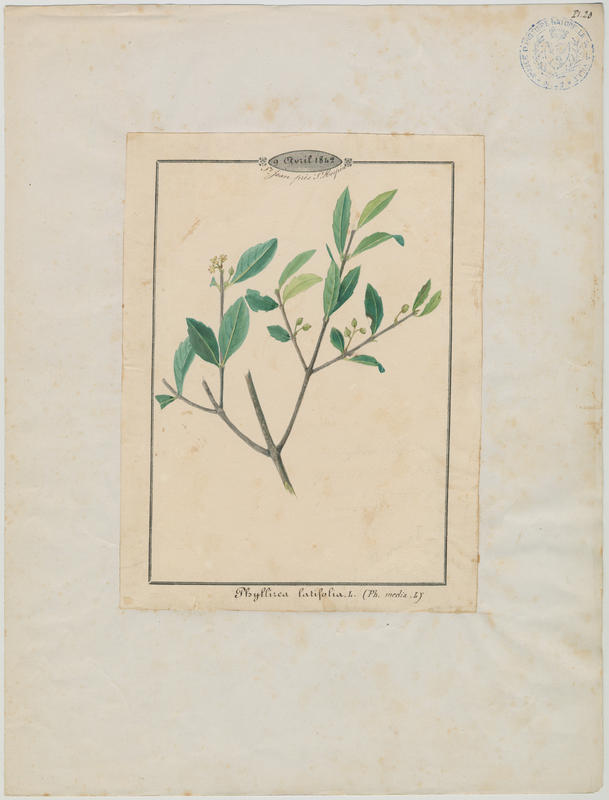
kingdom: Plantae
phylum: Tracheophyta
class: Magnoliopsida
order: Lamiales
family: Oleaceae
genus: Phillyrea
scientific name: Phillyrea latifolia
